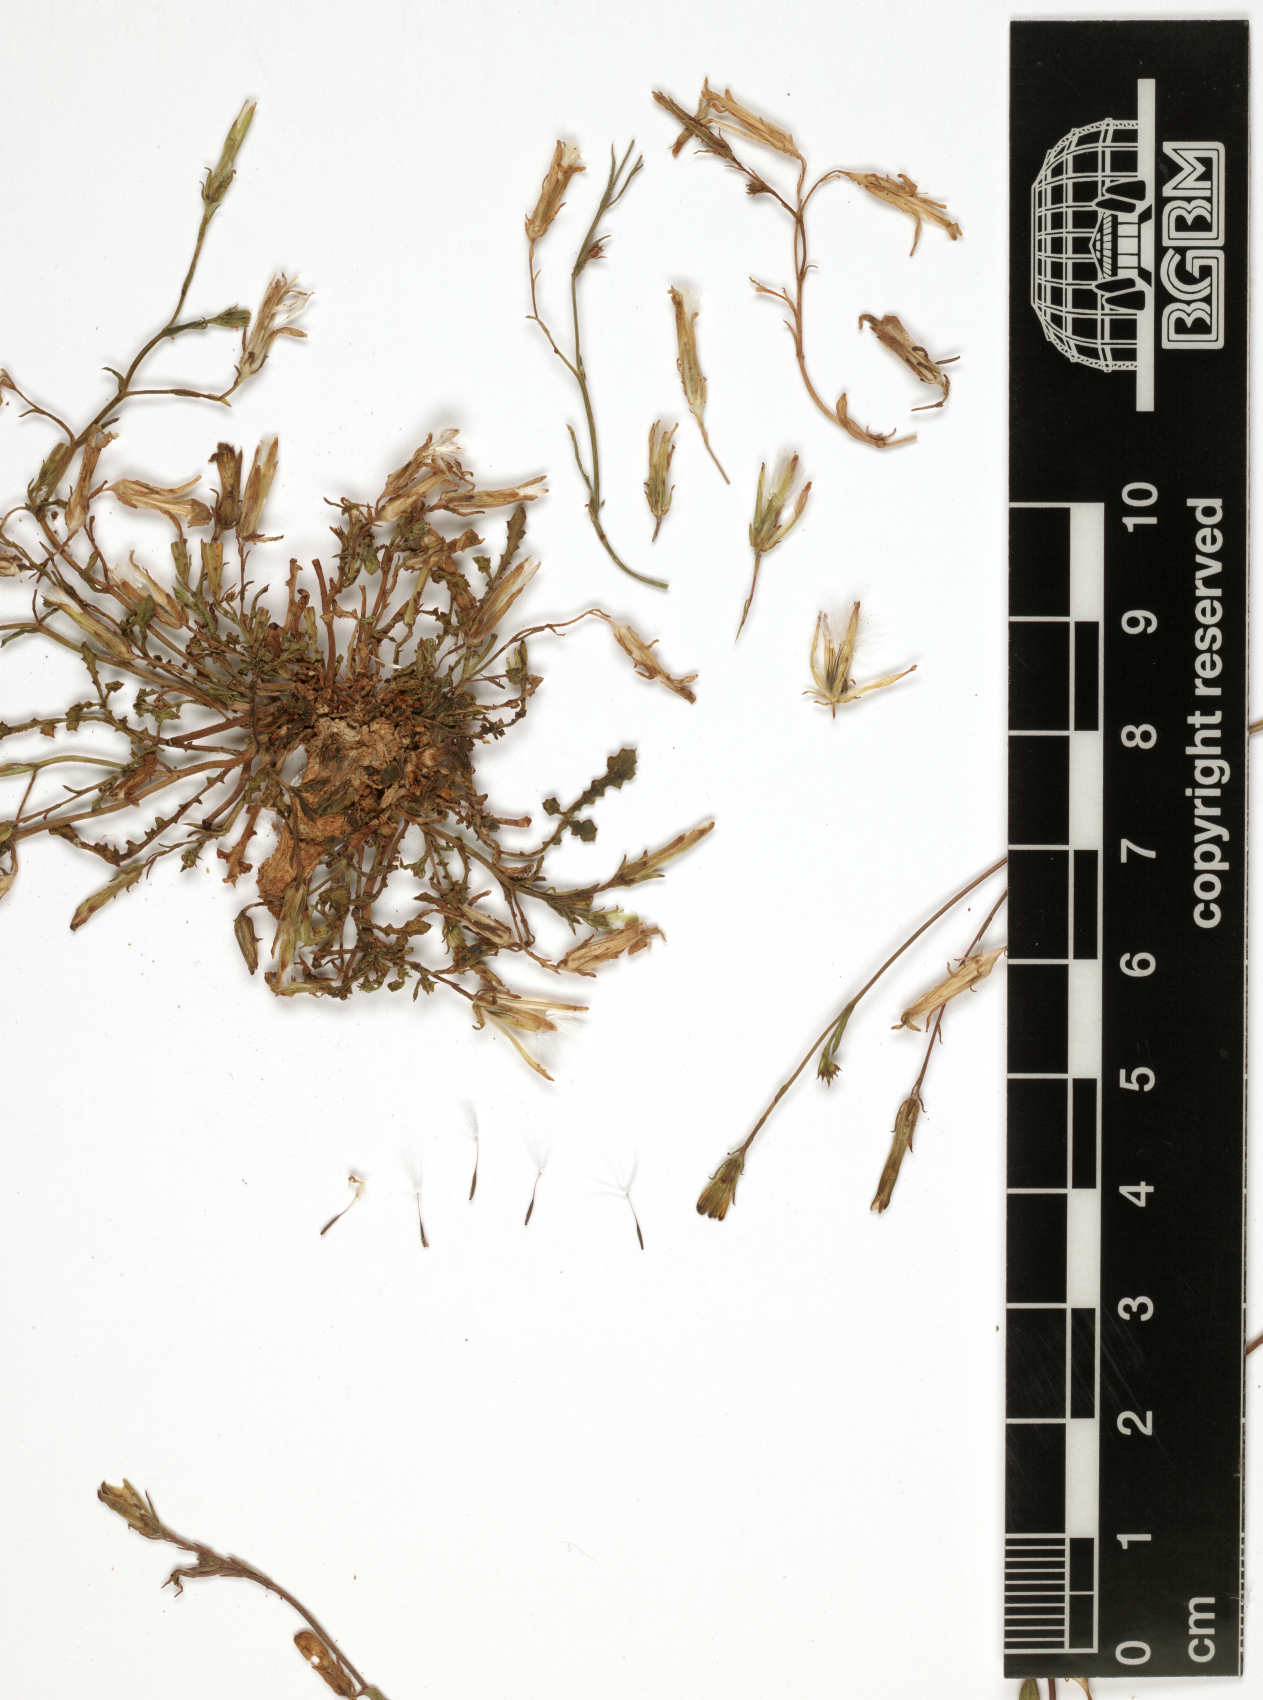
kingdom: Plantae
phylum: Tracheophyta
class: Magnoliopsida
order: Asterales
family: Asteraceae
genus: Launaea
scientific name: Launaea rhynchocarpa
